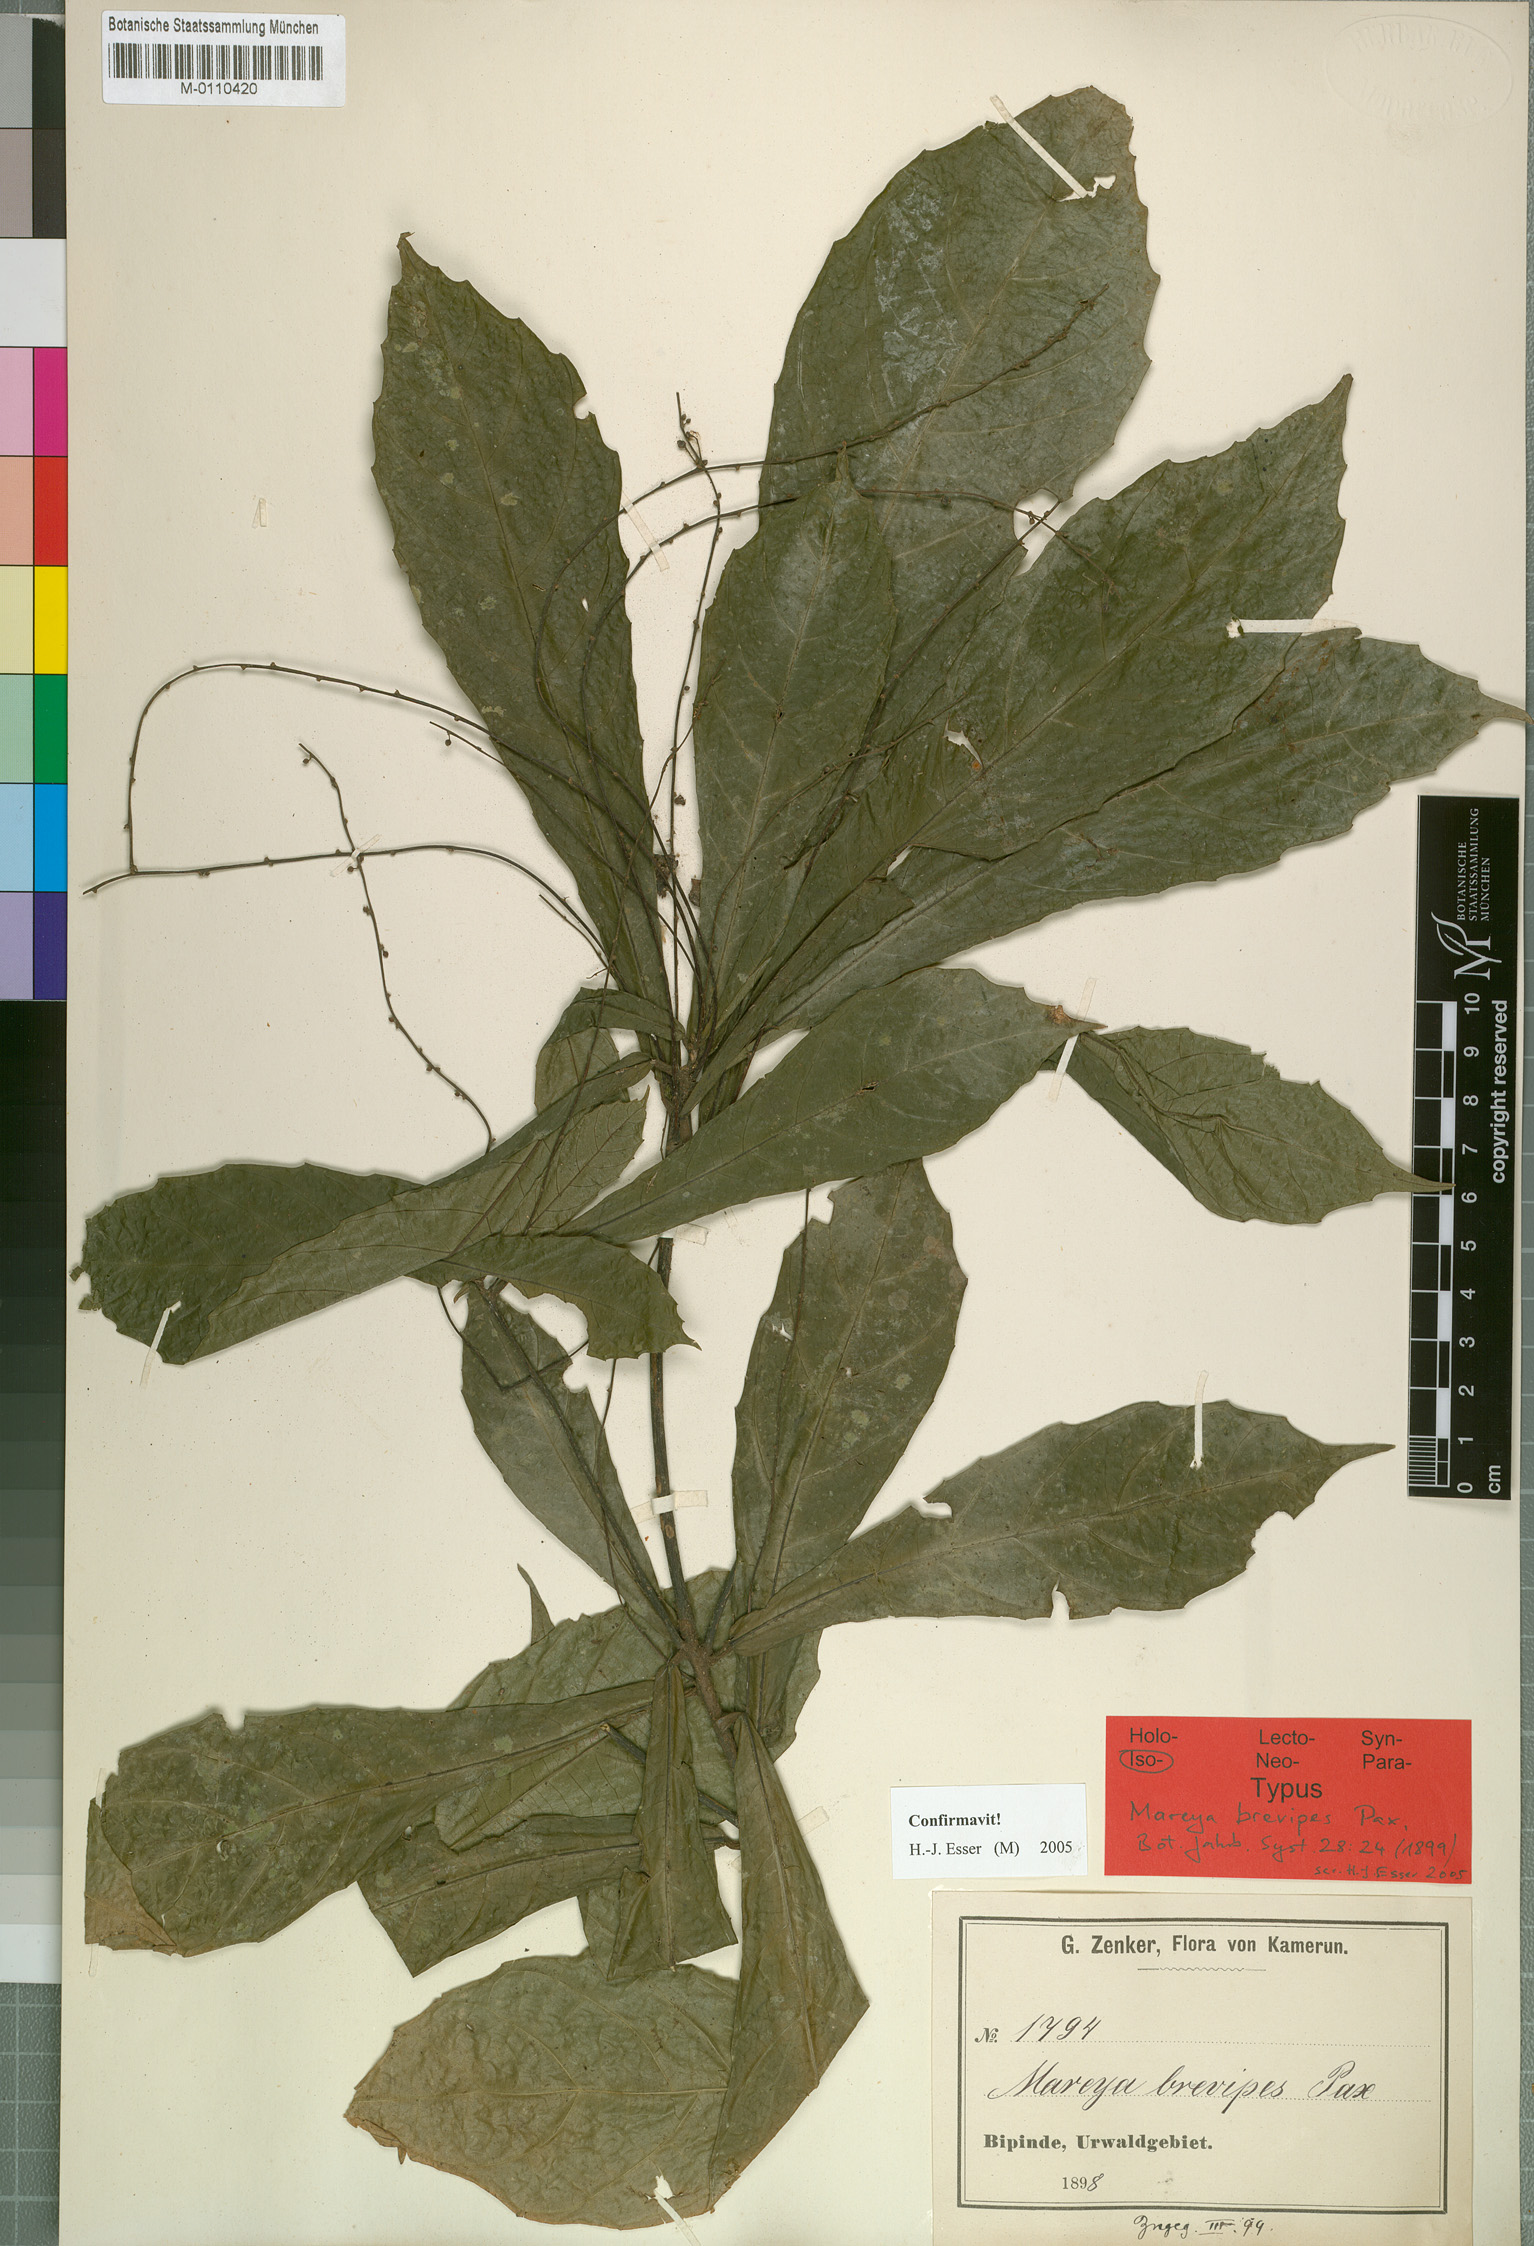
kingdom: Plantae
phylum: Tracheophyta
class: Magnoliopsida
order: Malpighiales
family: Euphorbiaceae
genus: Mareya
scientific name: Mareya brevipes
